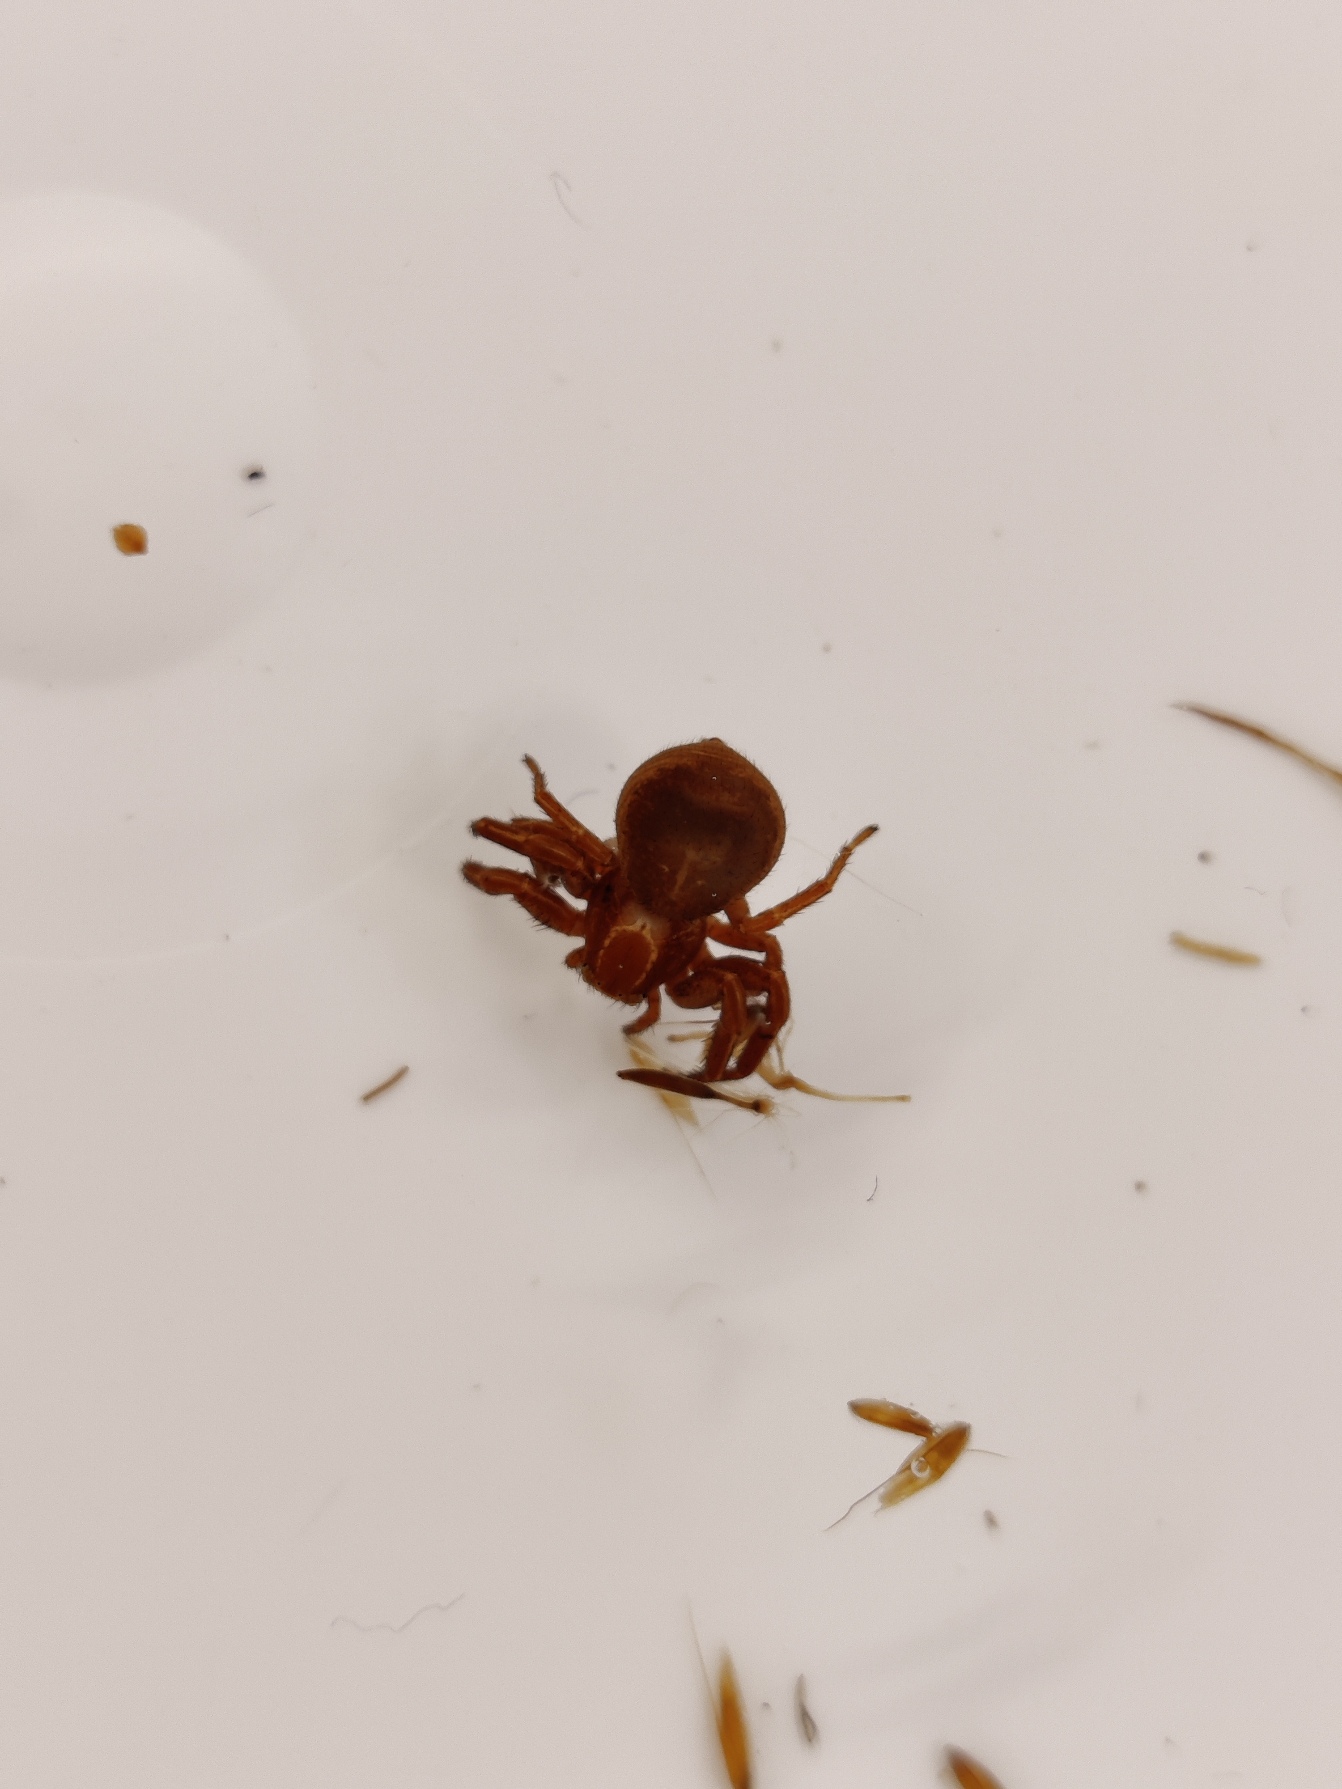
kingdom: Animalia
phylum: Arthropoda
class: Arachnida
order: Araneae
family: Thomisidae
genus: Xysticus
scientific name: Xysticus bifasciatus
